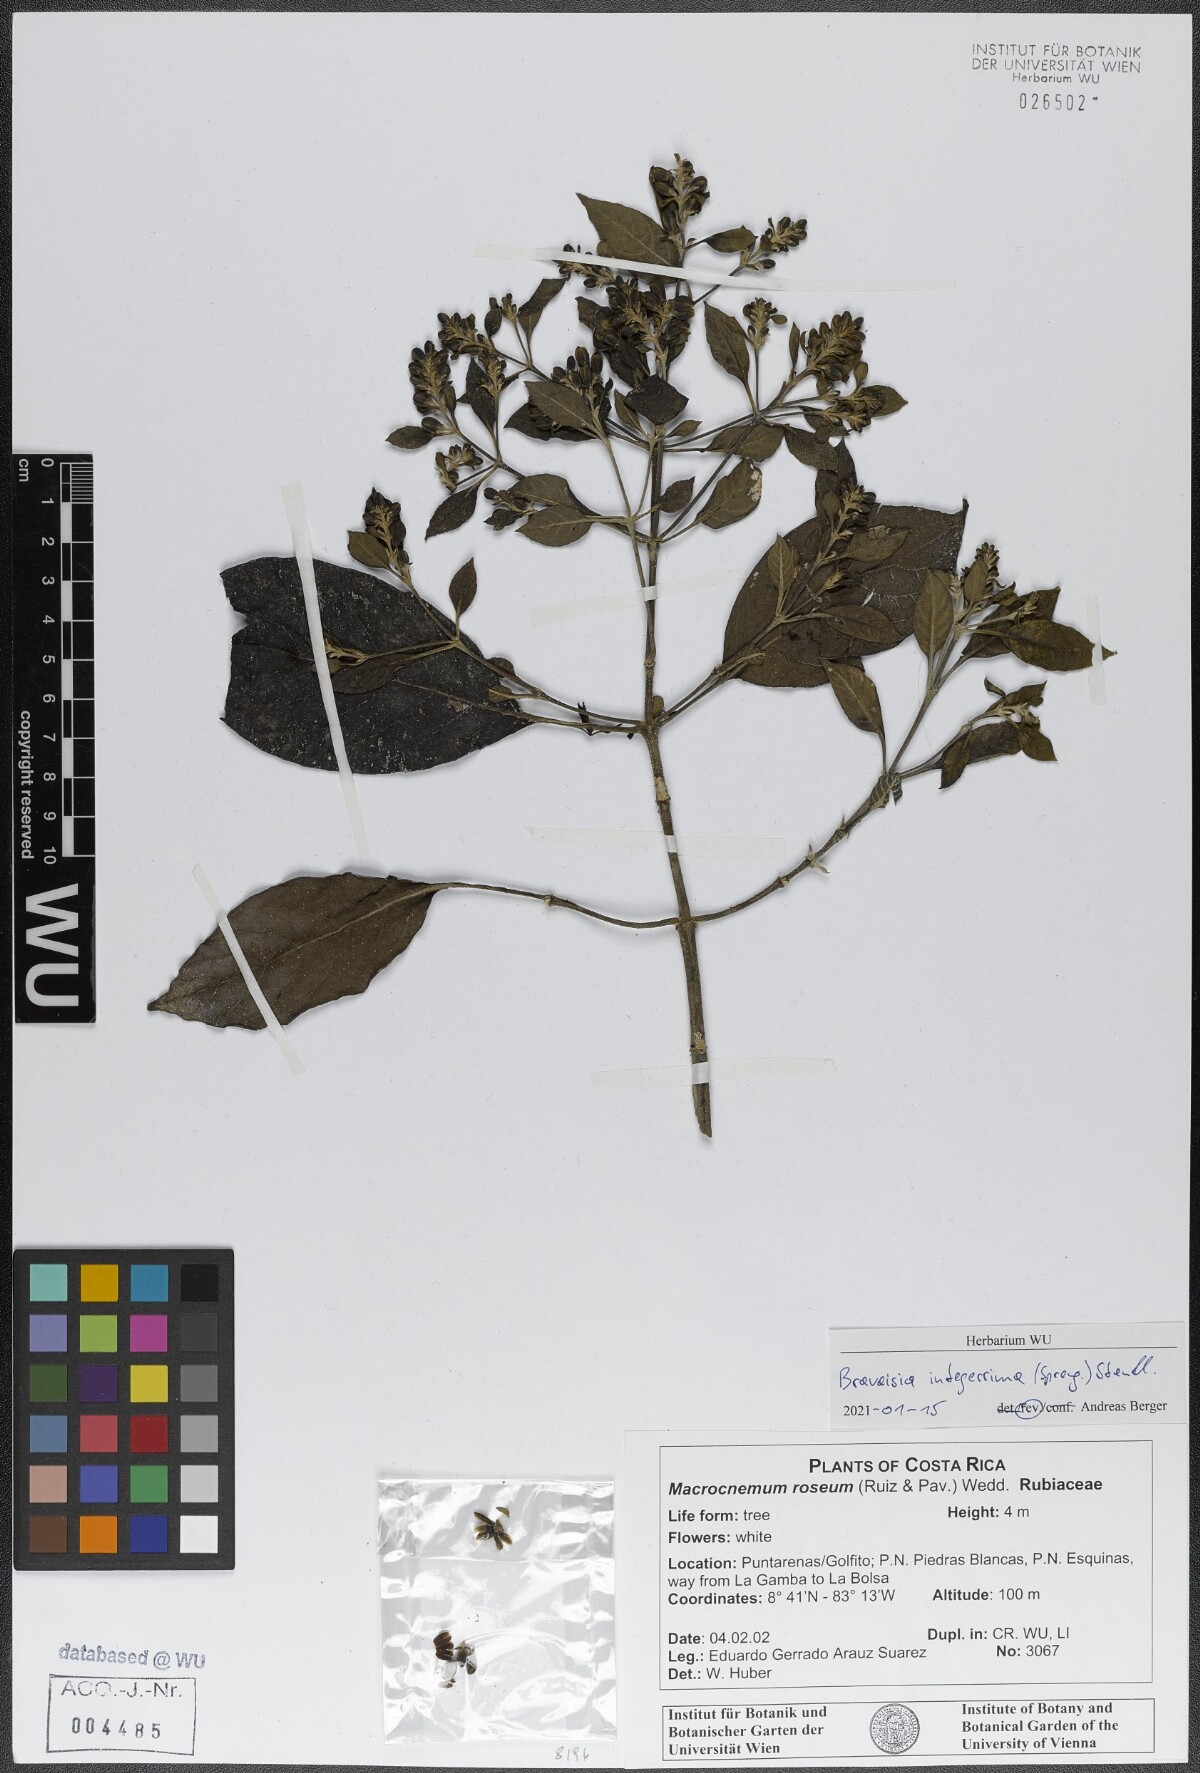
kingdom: Plantae
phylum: Tracheophyta
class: Magnoliopsida
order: Lamiales
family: Acanthaceae
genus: Bravaisia
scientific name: Bravaisia integerrima
